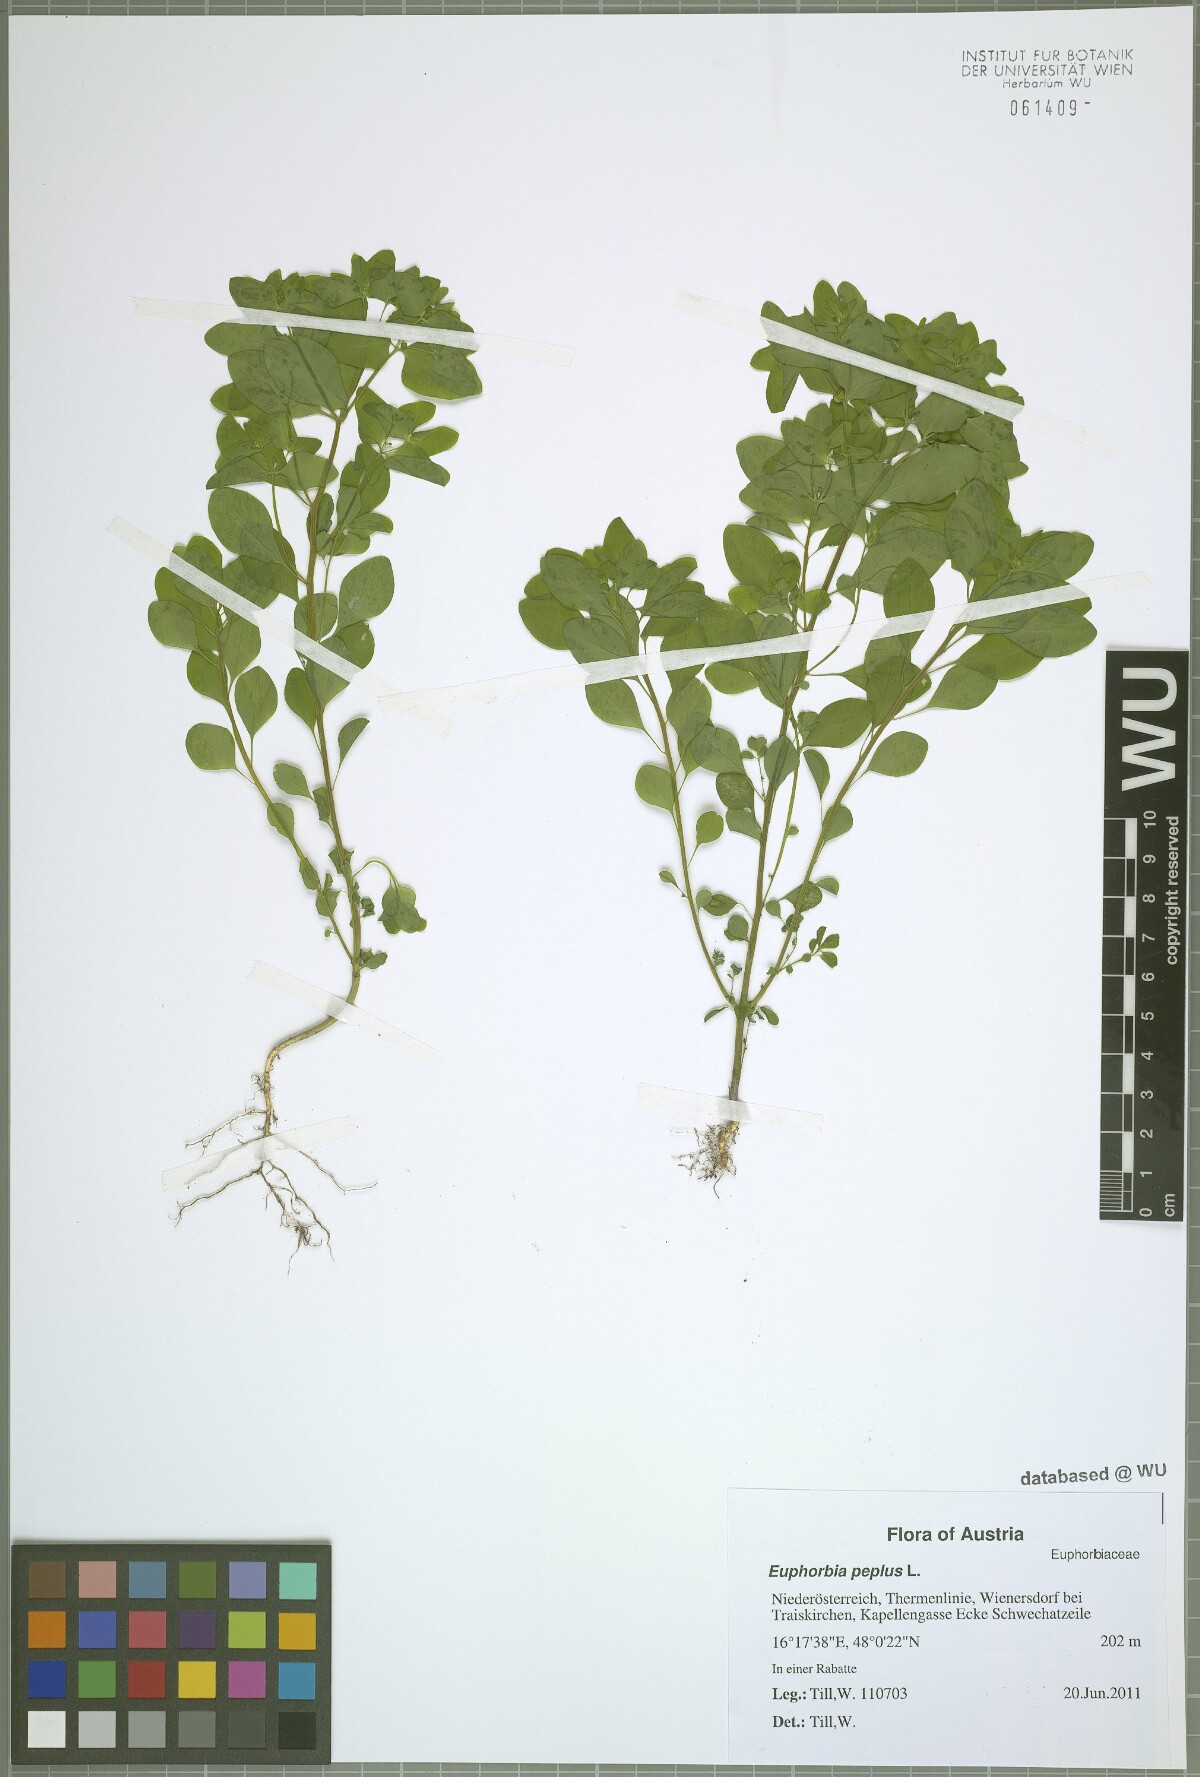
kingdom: Plantae
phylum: Tracheophyta
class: Magnoliopsida
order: Malpighiales
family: Euphorbiaceae
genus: Euphorbia
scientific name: Euphorbia peplus
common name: Petty spurge
